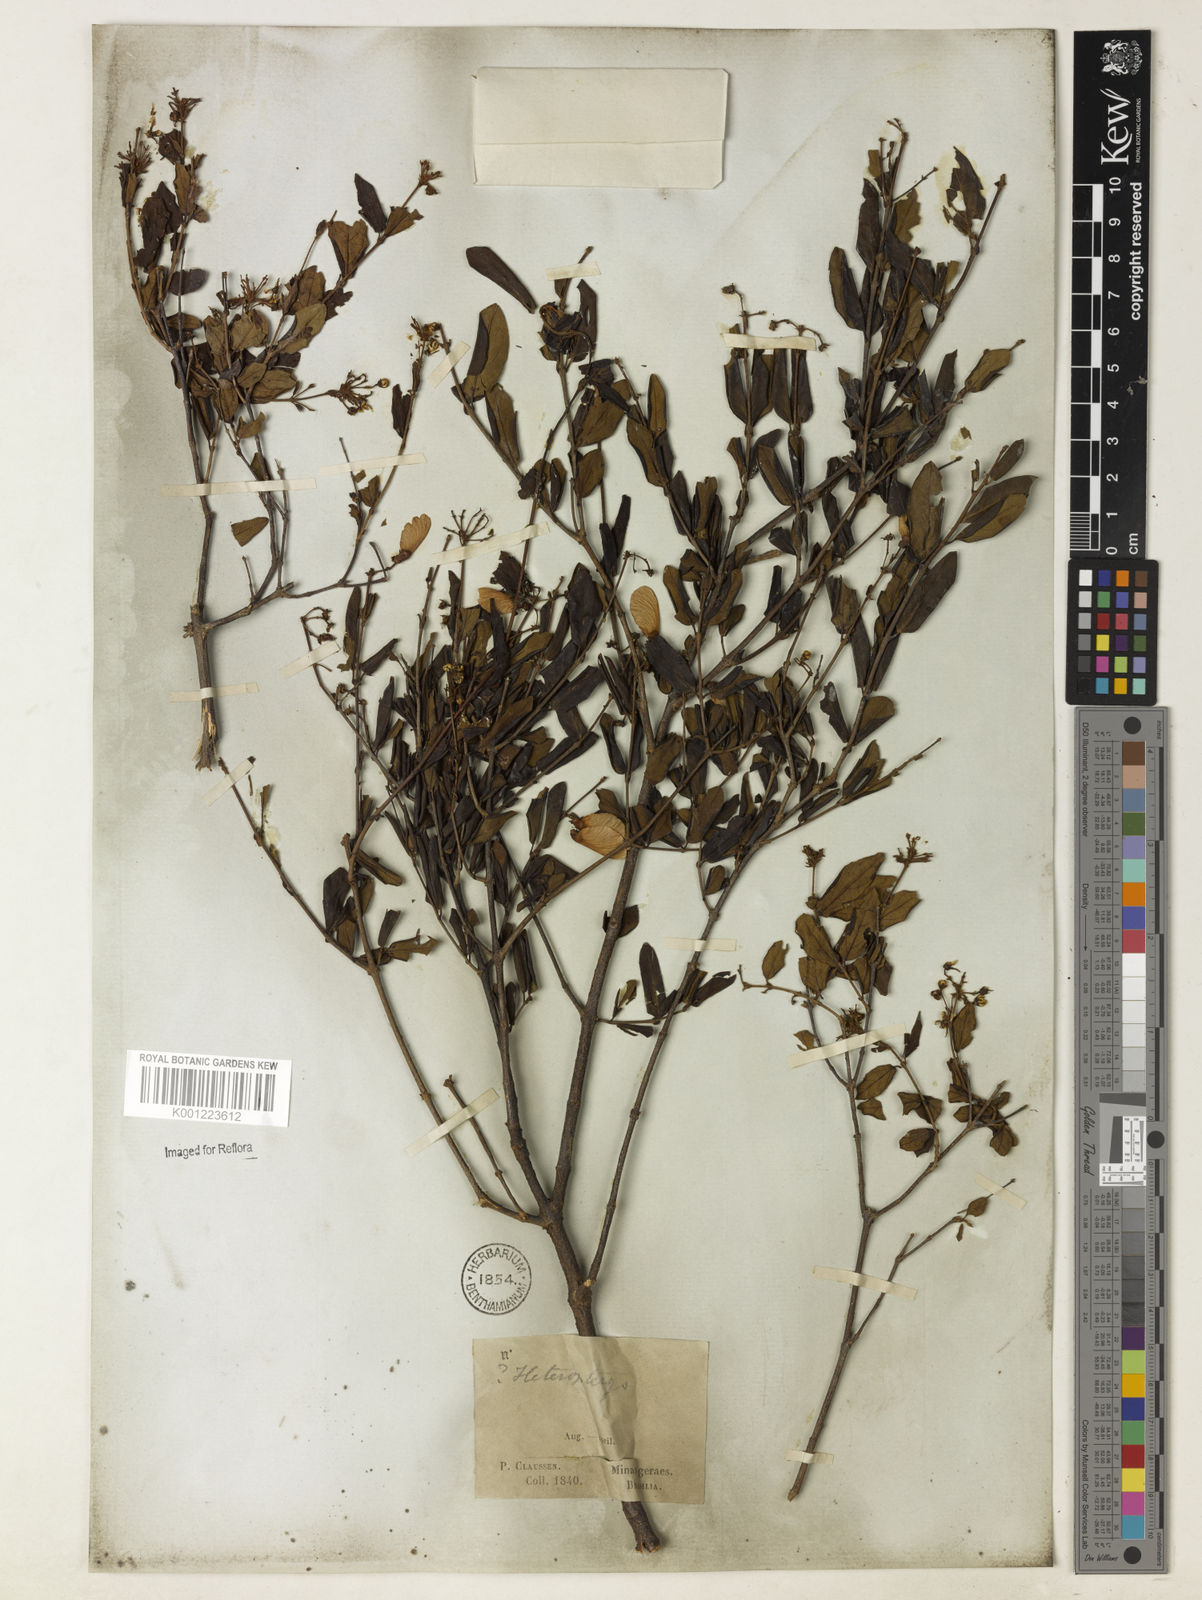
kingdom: Plantae
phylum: Tracheophyta
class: Magnoliopsida
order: Malpighiales
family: Malpighiaceae
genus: Heteropterys
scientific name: Heteropterys umbellata
